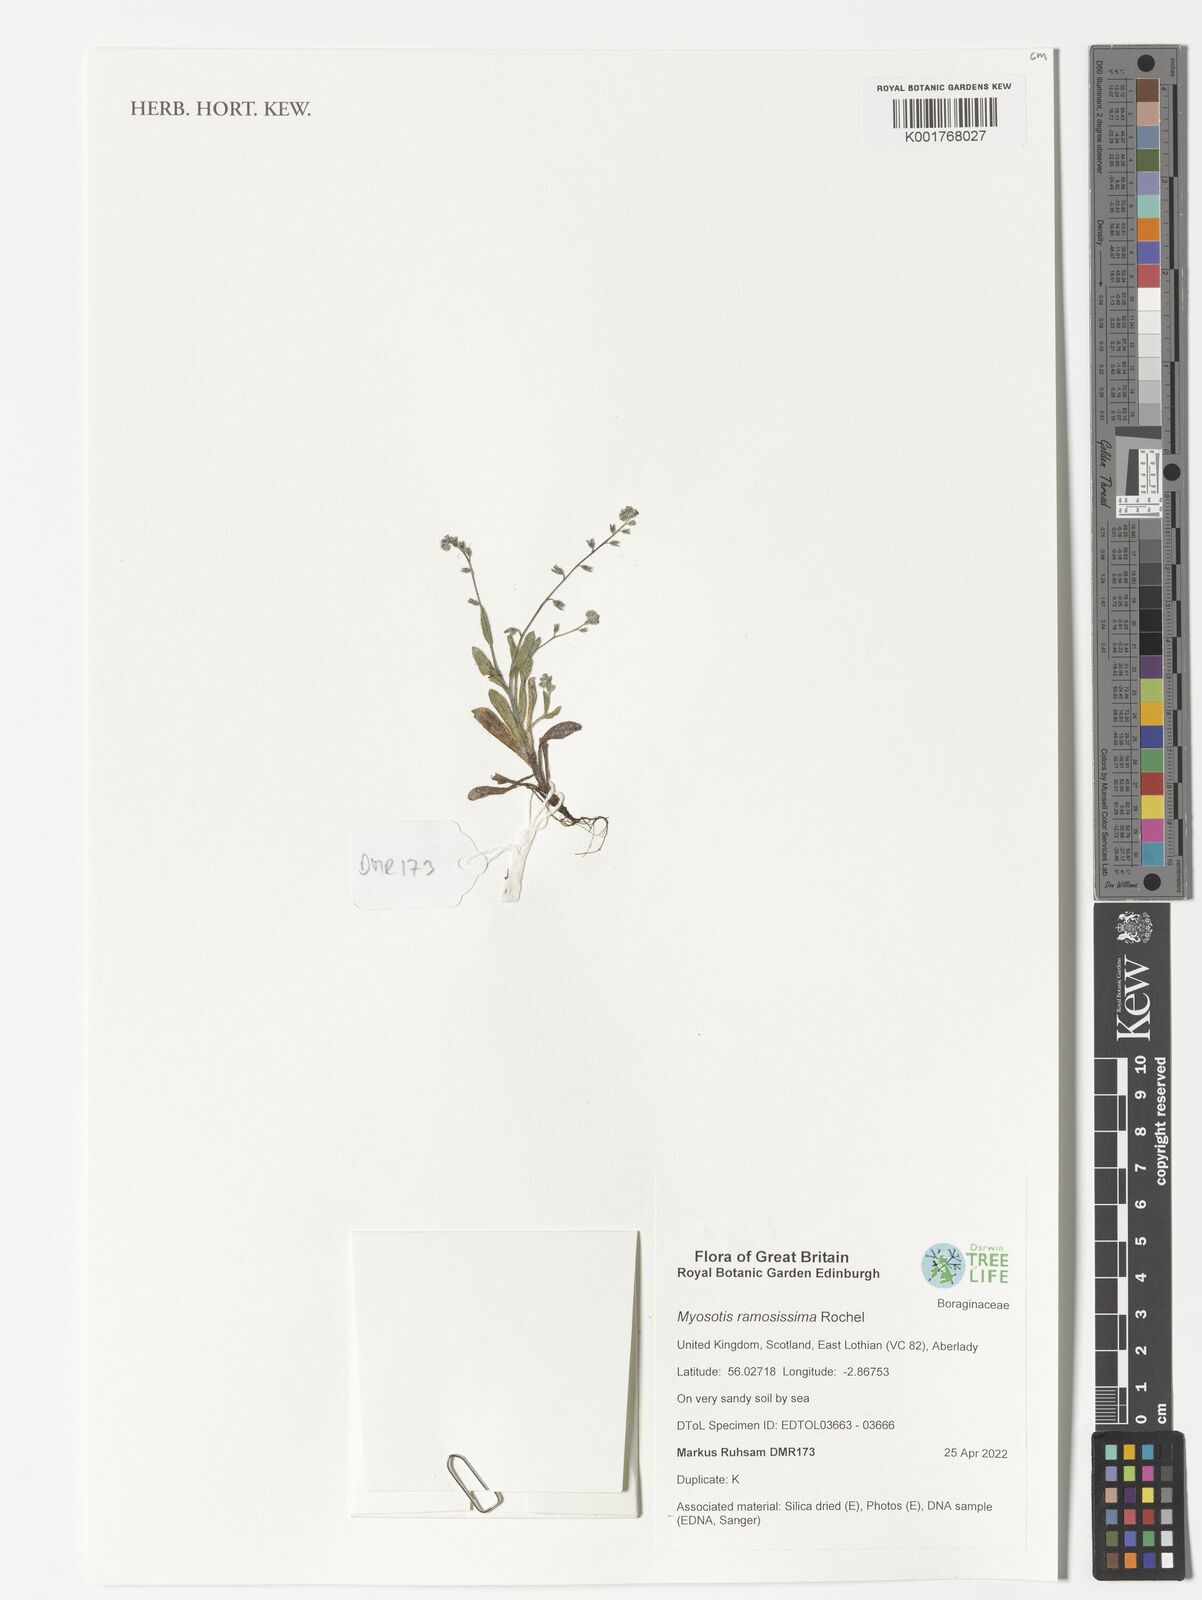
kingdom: Plantae
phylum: Tracheophyta
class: Magnoliopsida
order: Boraginales
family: Boraginaceae
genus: Myosotis
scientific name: Myosotis ramosissima
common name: Early forget-me-not
